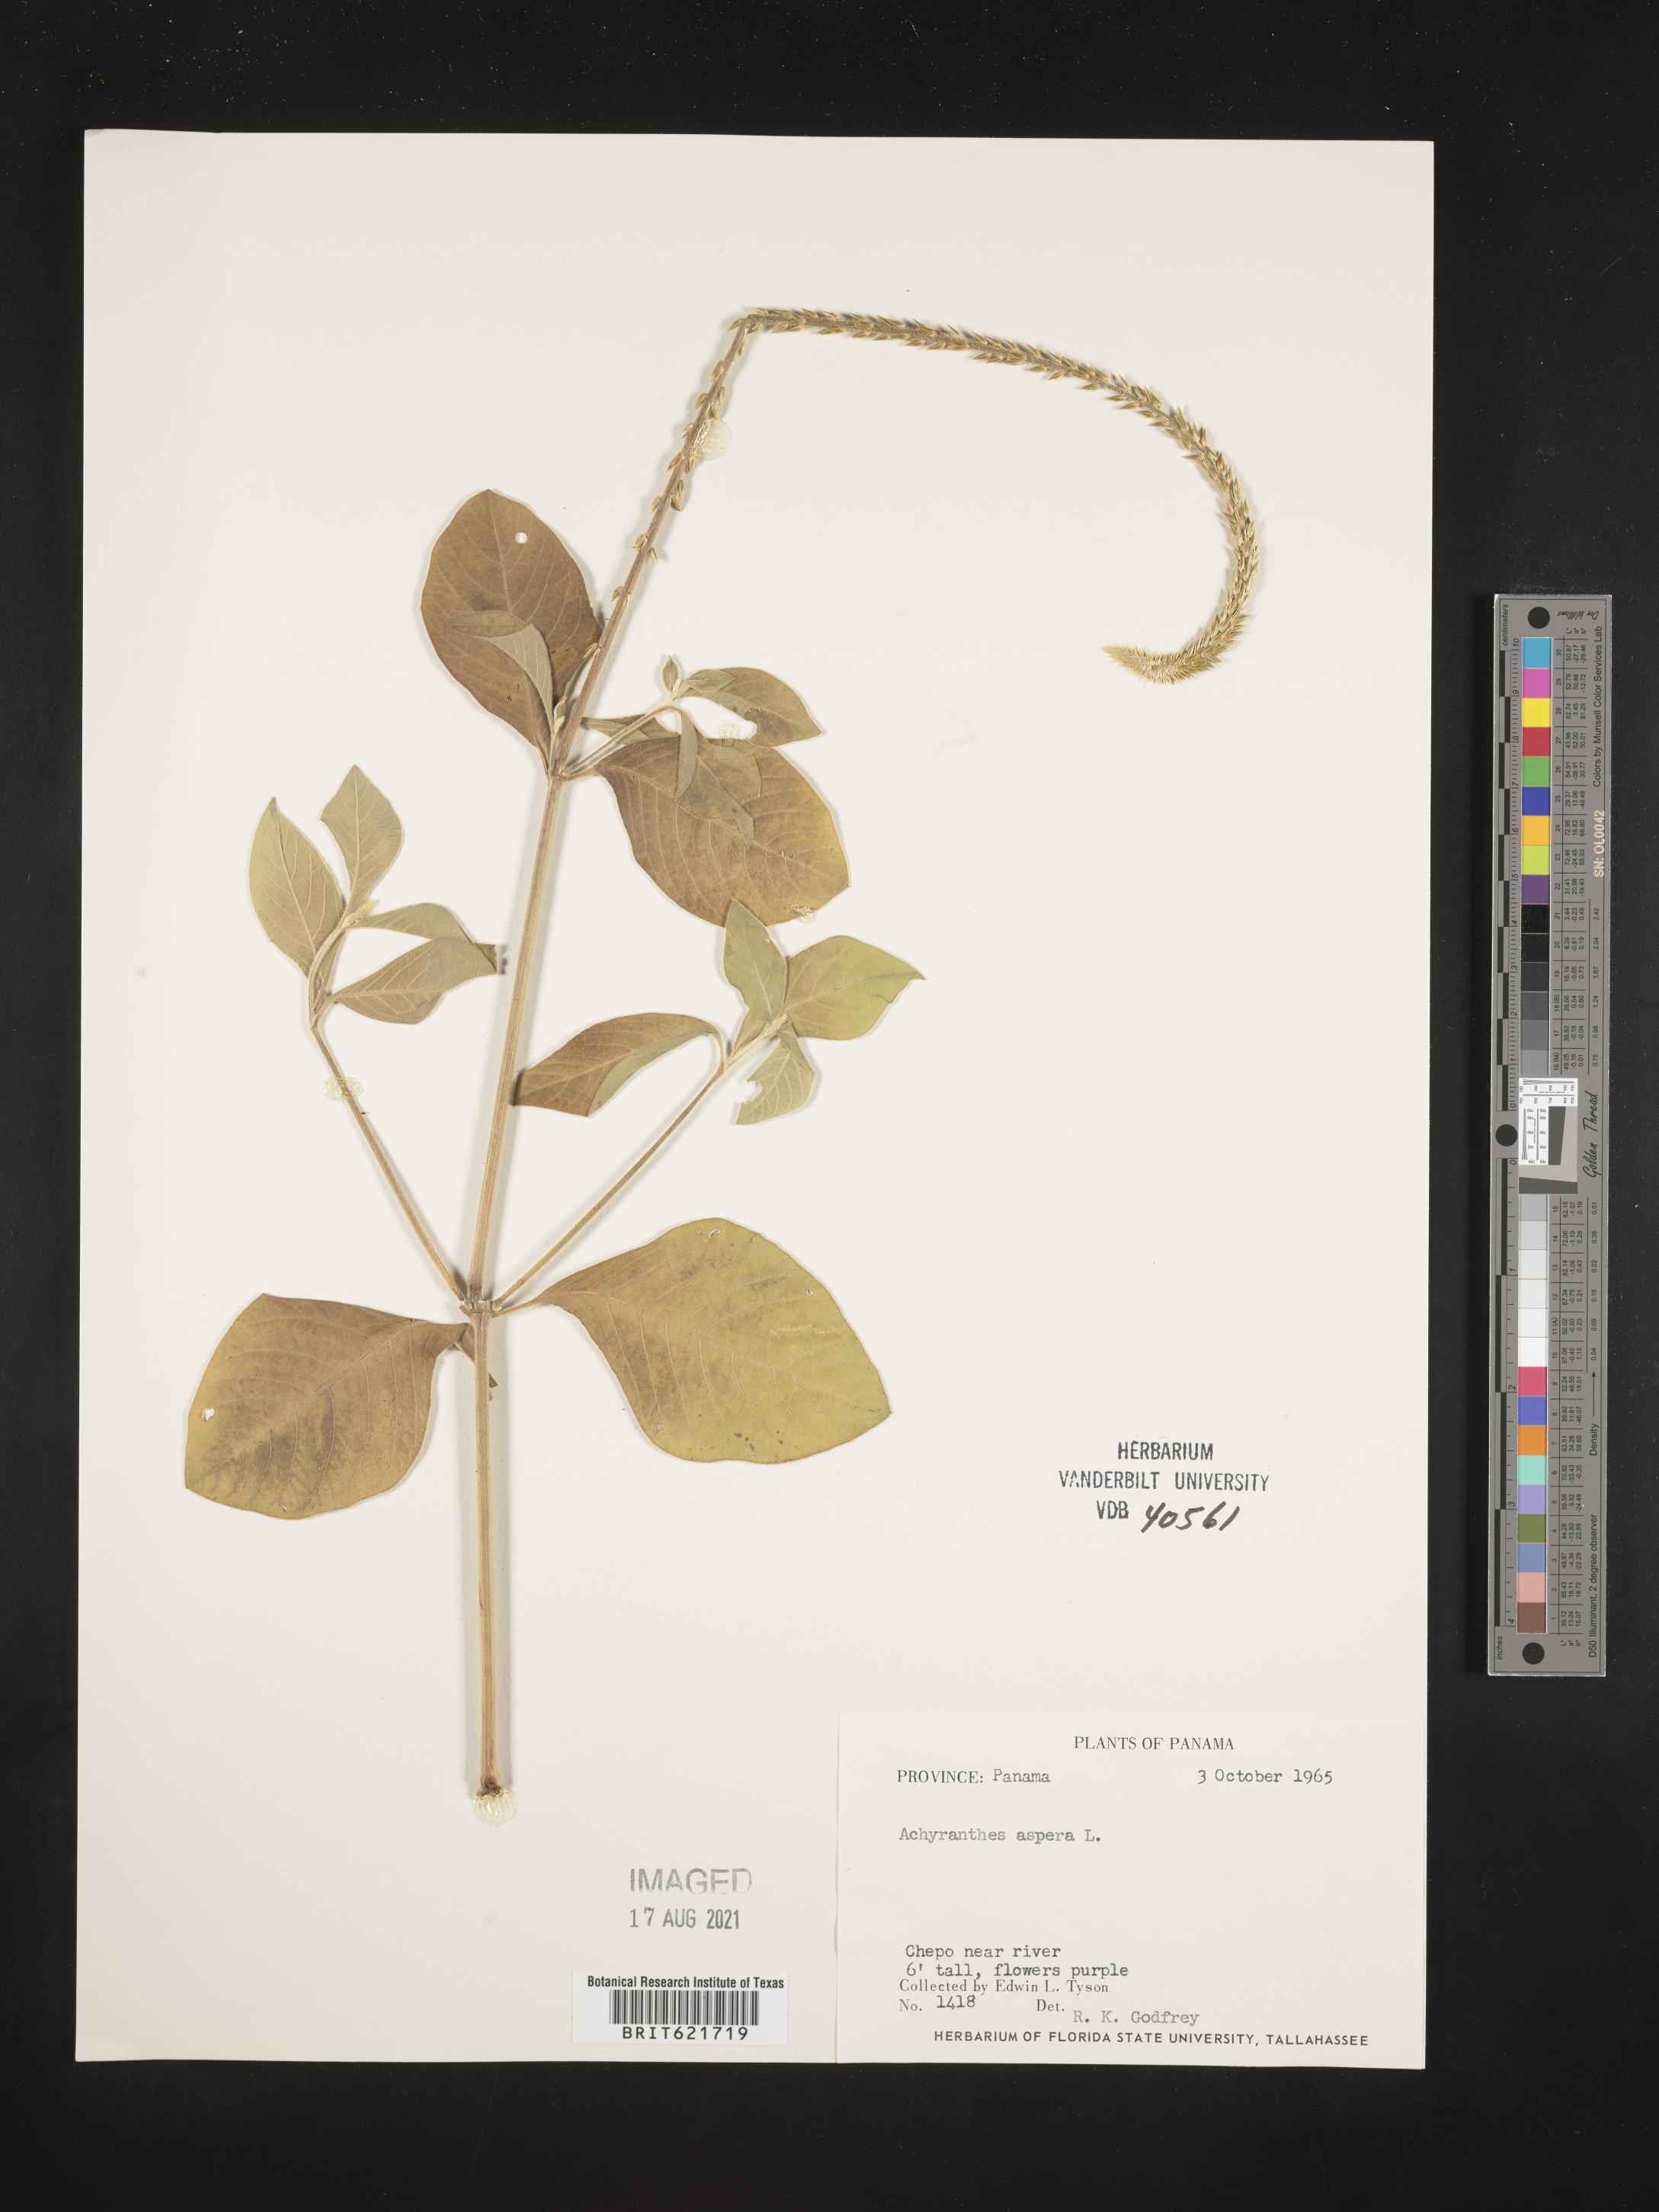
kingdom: Plantae
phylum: Tracheophyta
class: Magnoliopsida
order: Caryophyllales
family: Amaranthaceae
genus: Achyranthes
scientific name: Achyranthes aspera
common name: Devil's horsewhip
